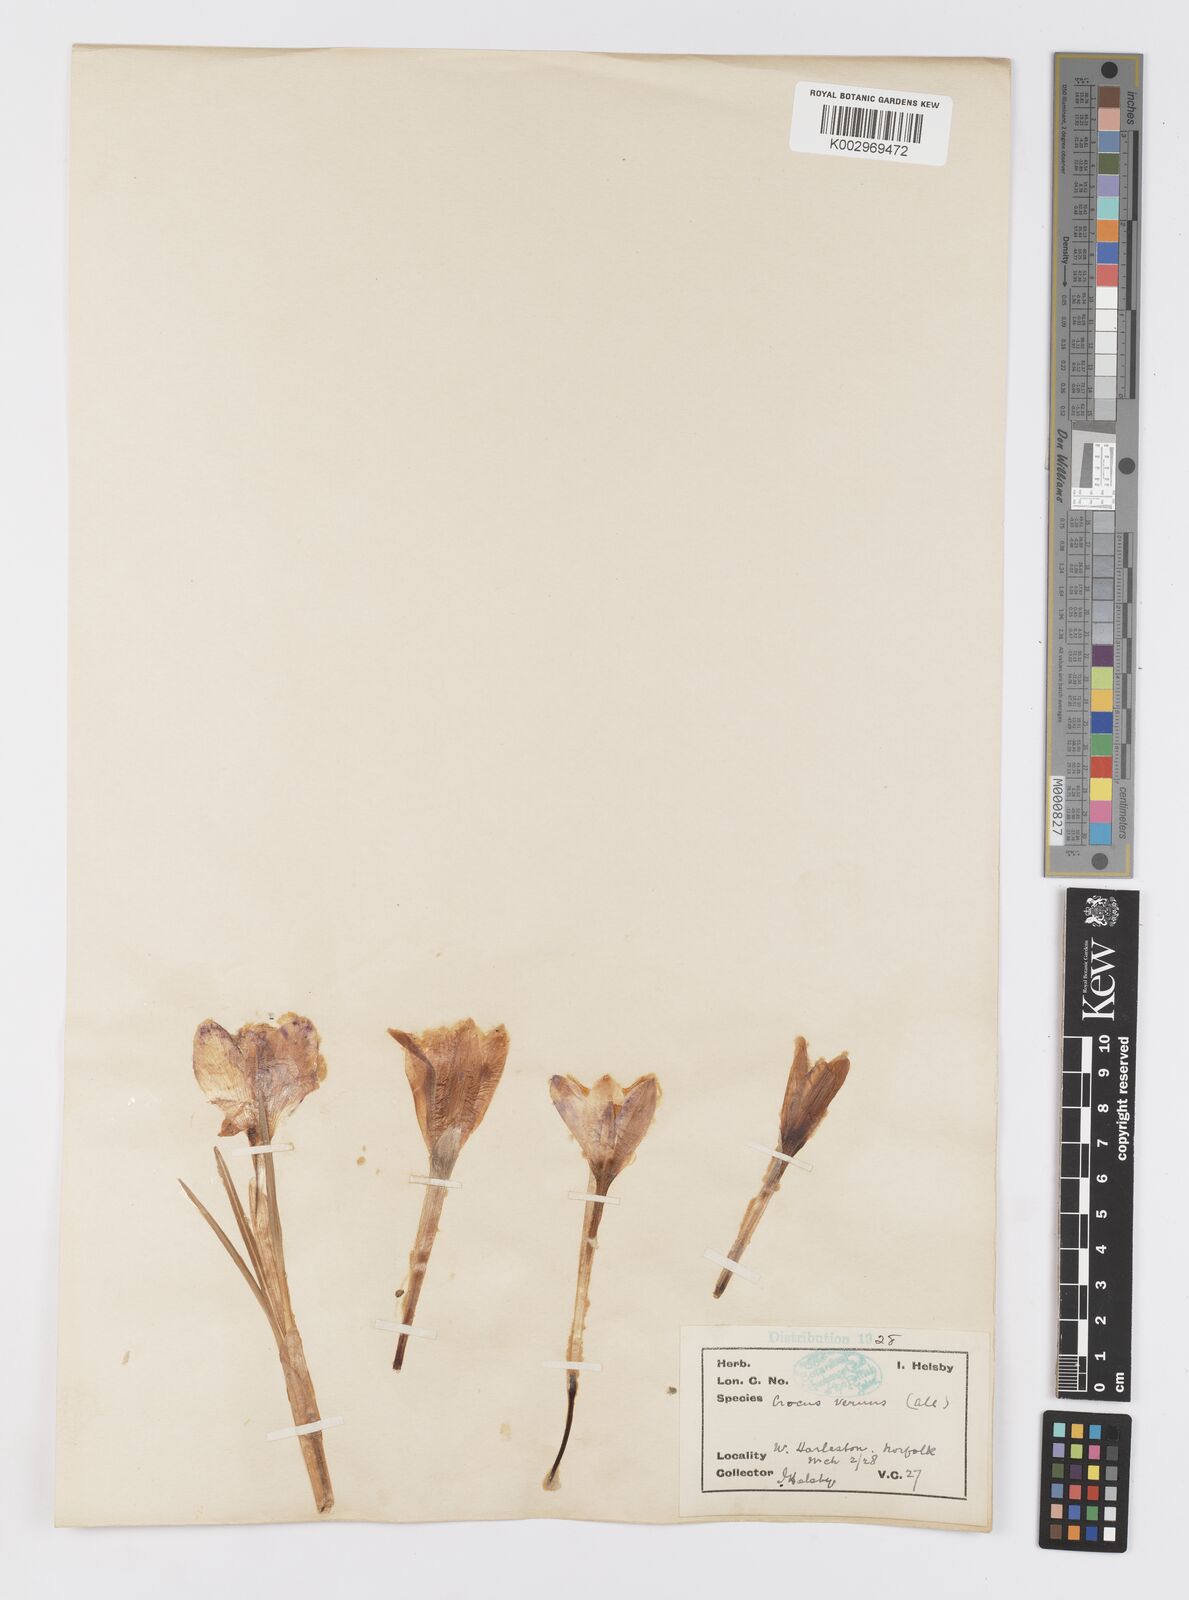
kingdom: Plantae
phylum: Tracheophyta
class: Liliopsida
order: Asparagales
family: Iridaceae
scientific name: Iridaceae
